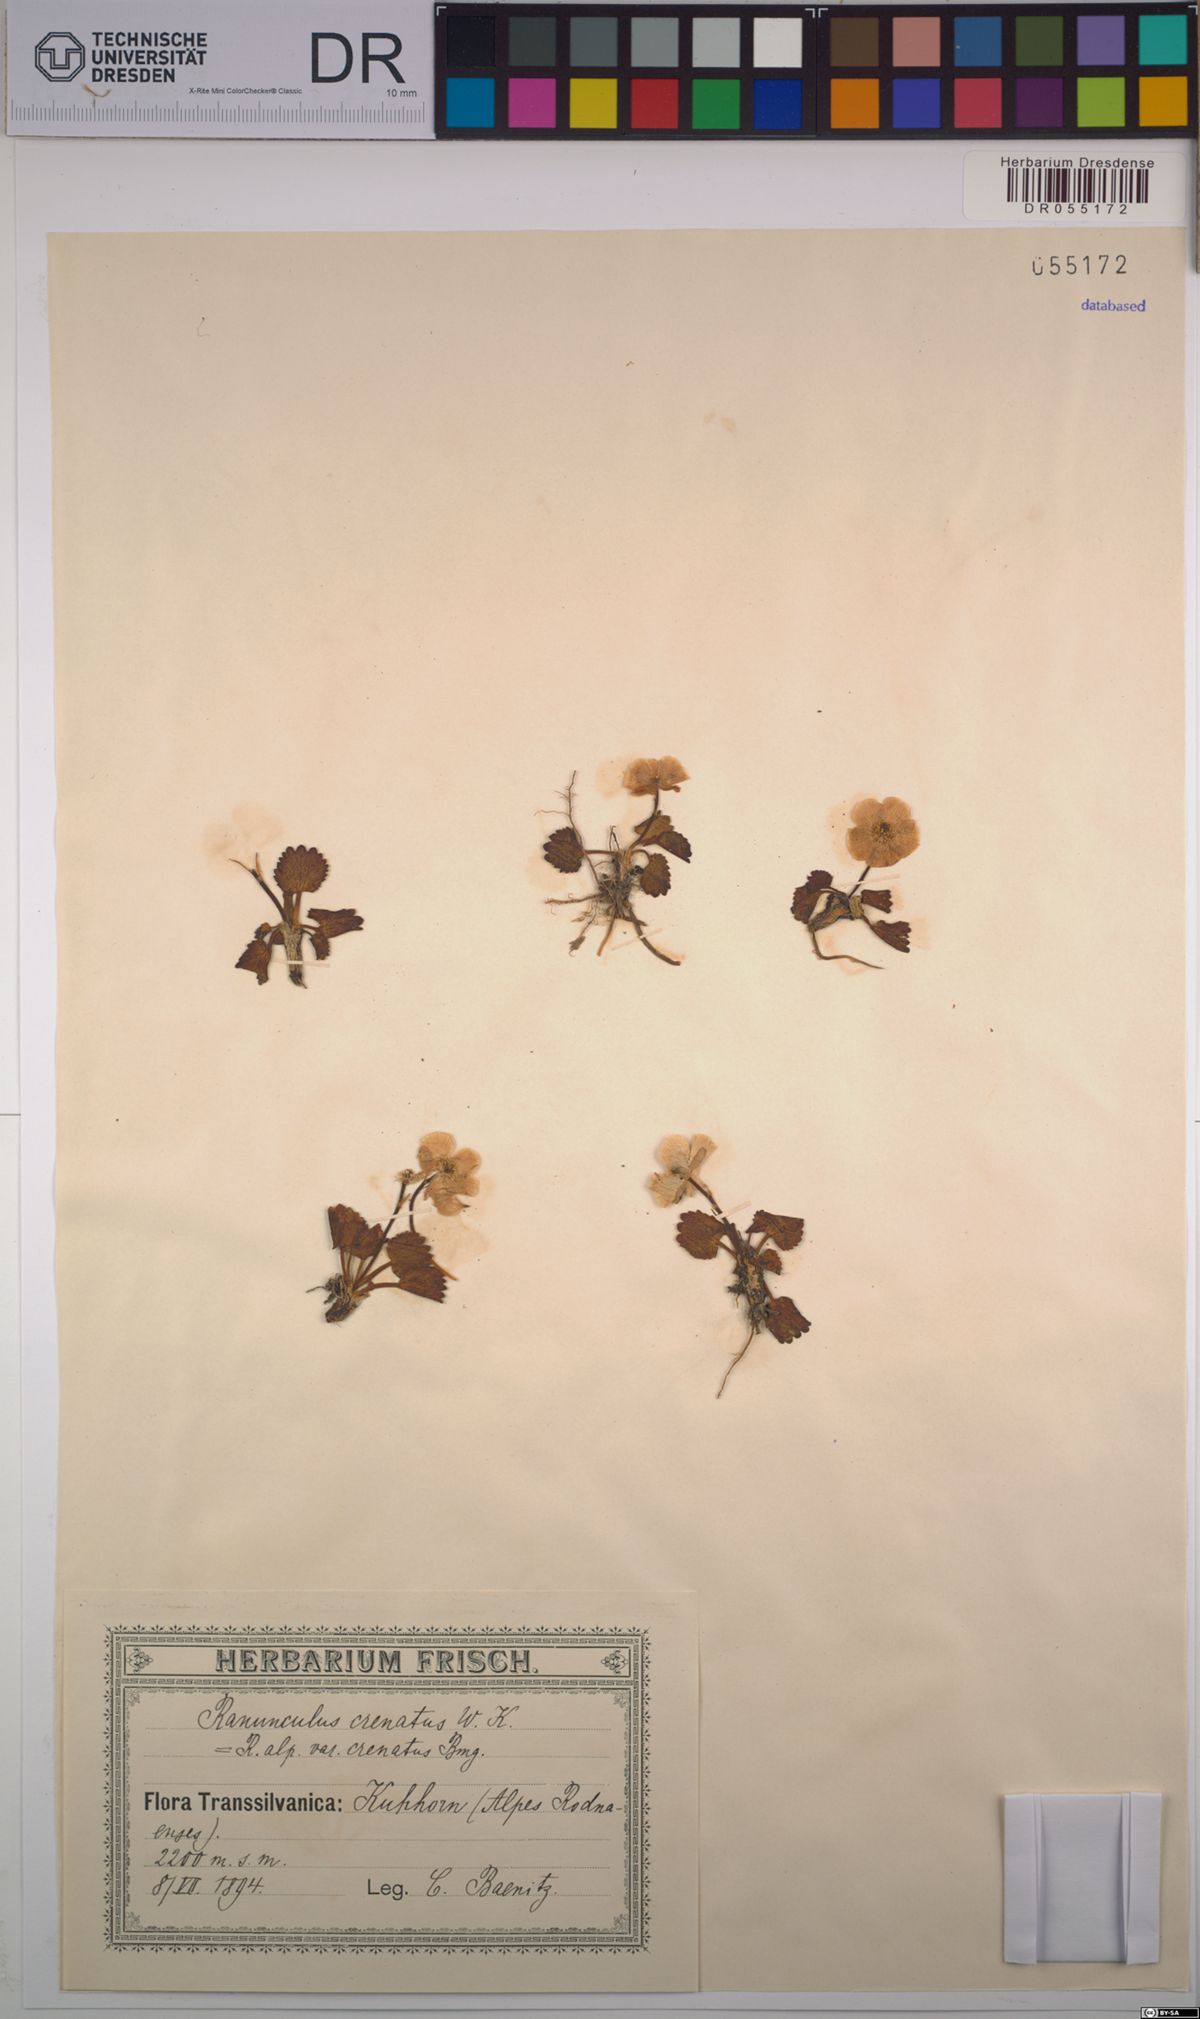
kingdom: Plantae
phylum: Tracheophyta
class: Magnoliopsida
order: Ranunculales
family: Ranunculaceae
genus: Ranunculus
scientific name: Ranunculus crenatus
